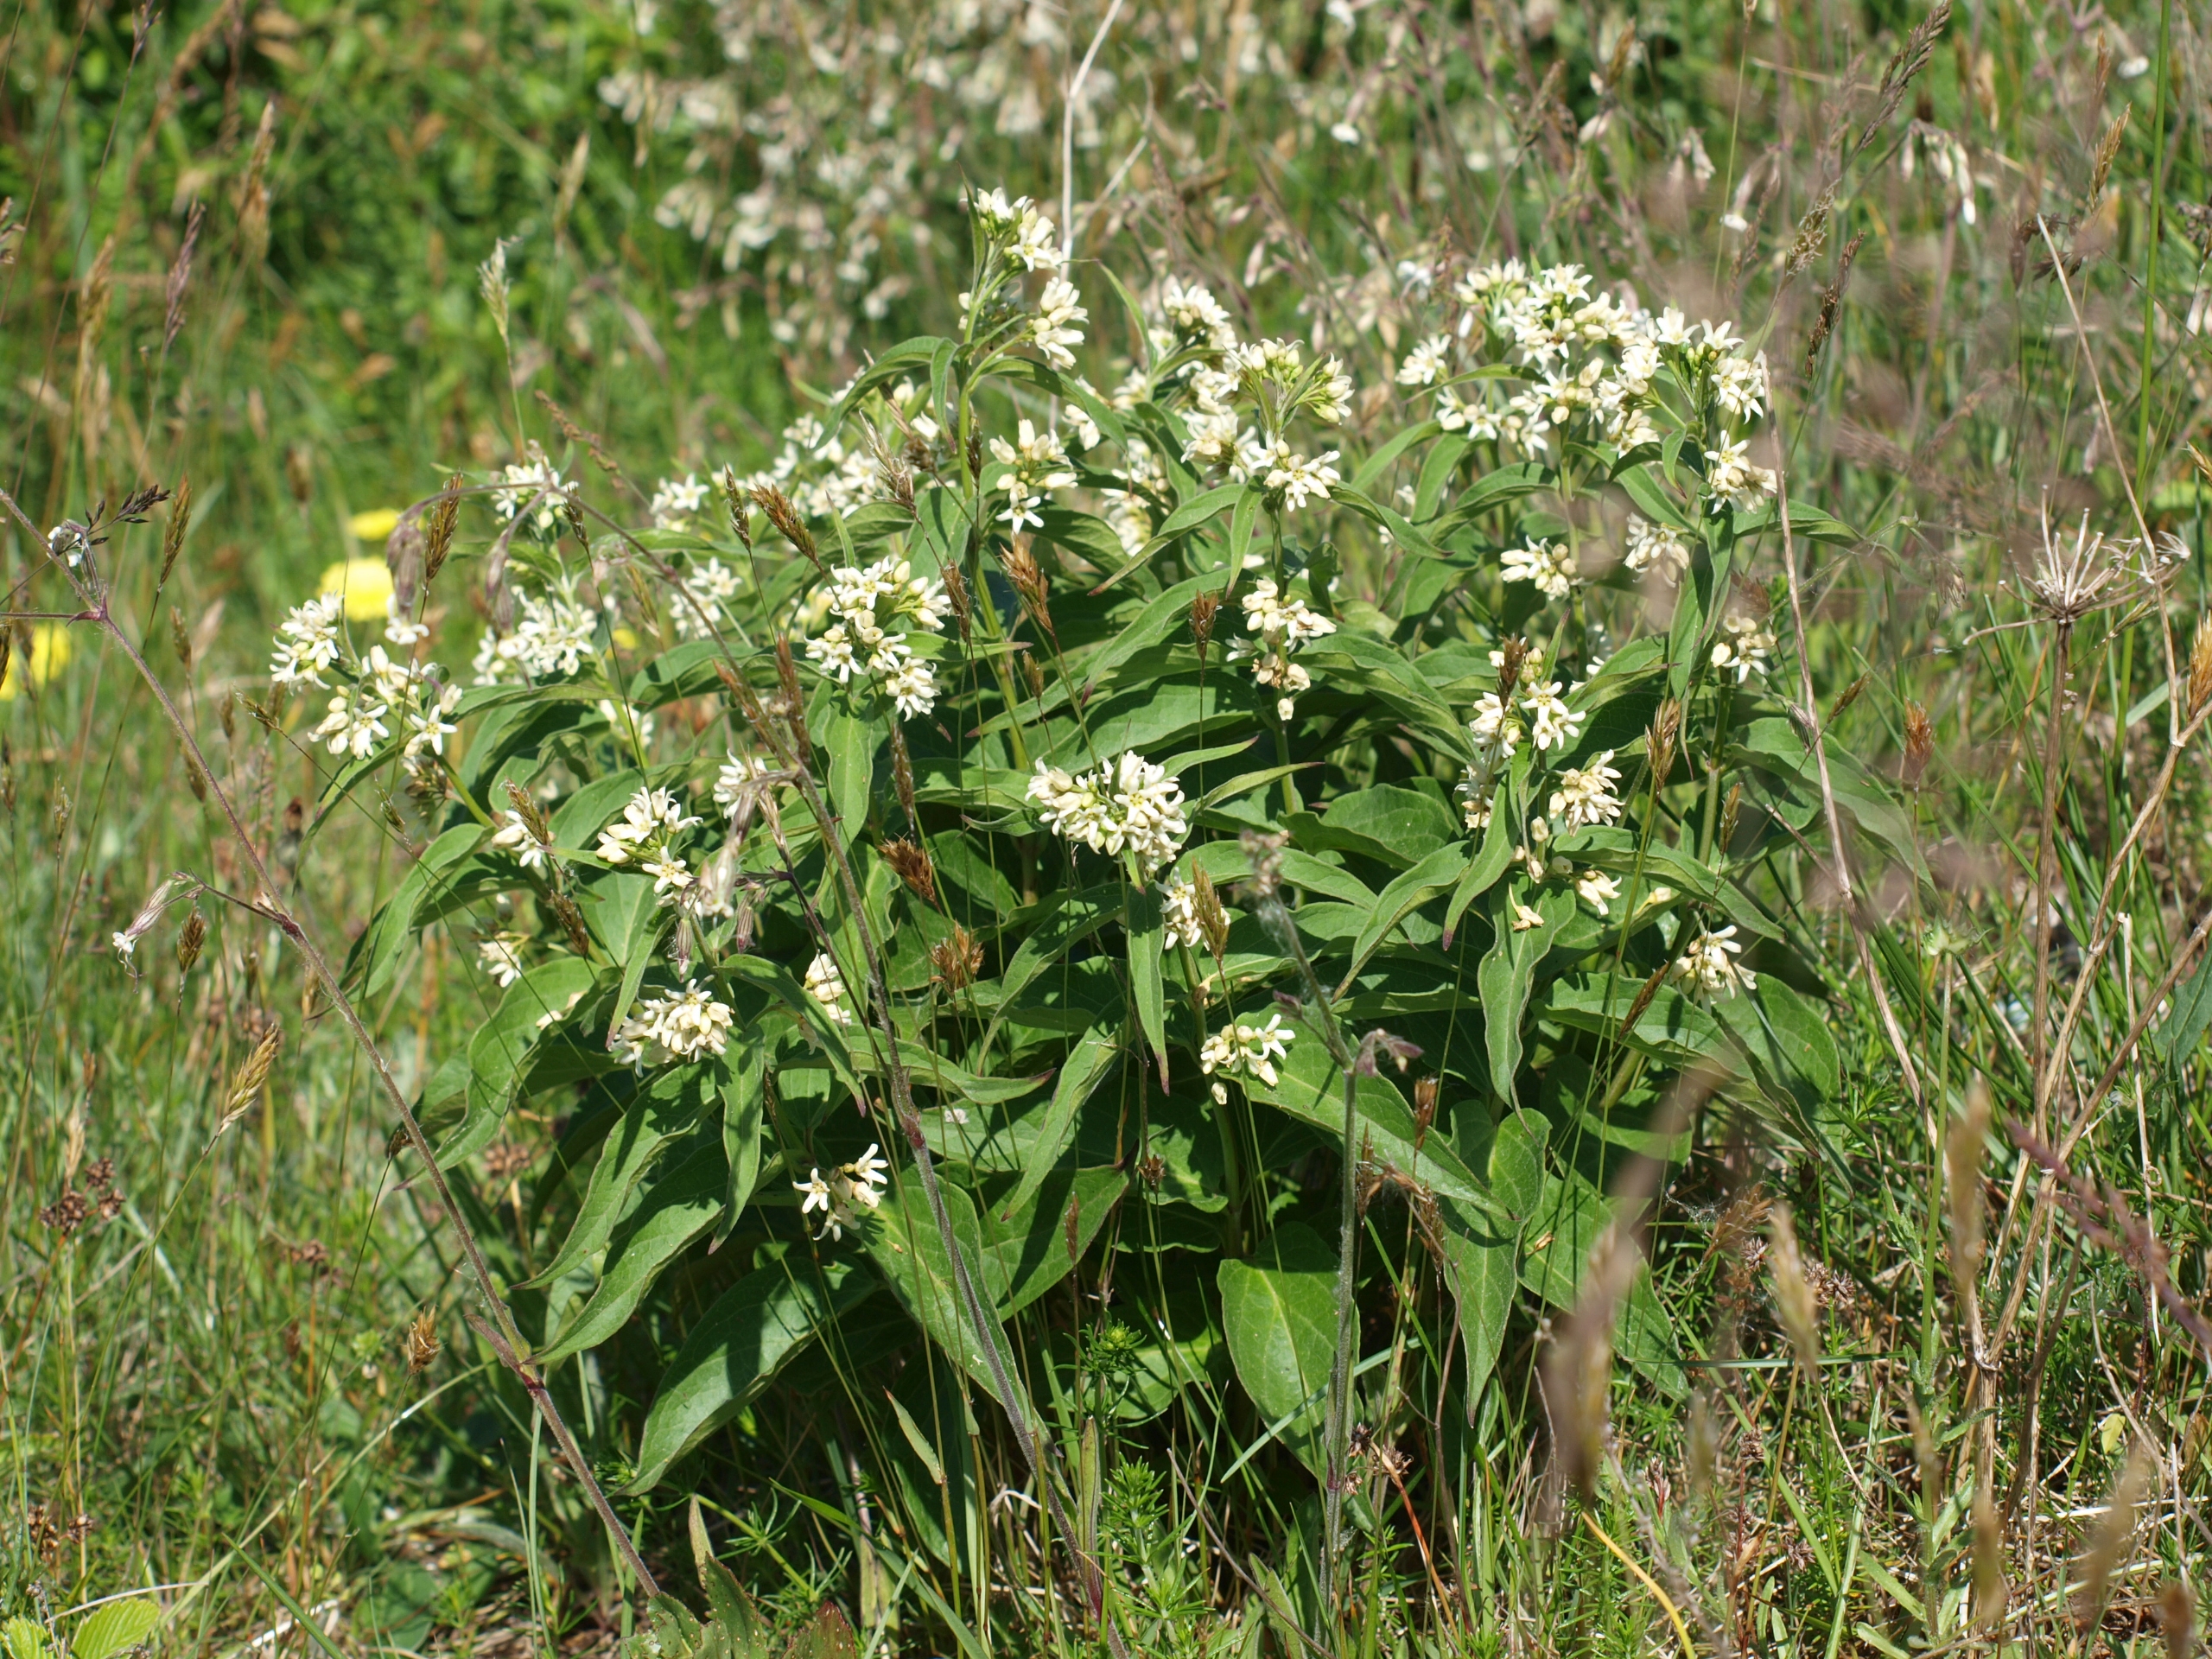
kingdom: Plantae
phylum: Tracheophyta
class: Magnoliopsida
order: Gentianales
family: Apocynaceae
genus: Vincetoxicum
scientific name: Vincetoxicum hirundinaria
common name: Svalerod
